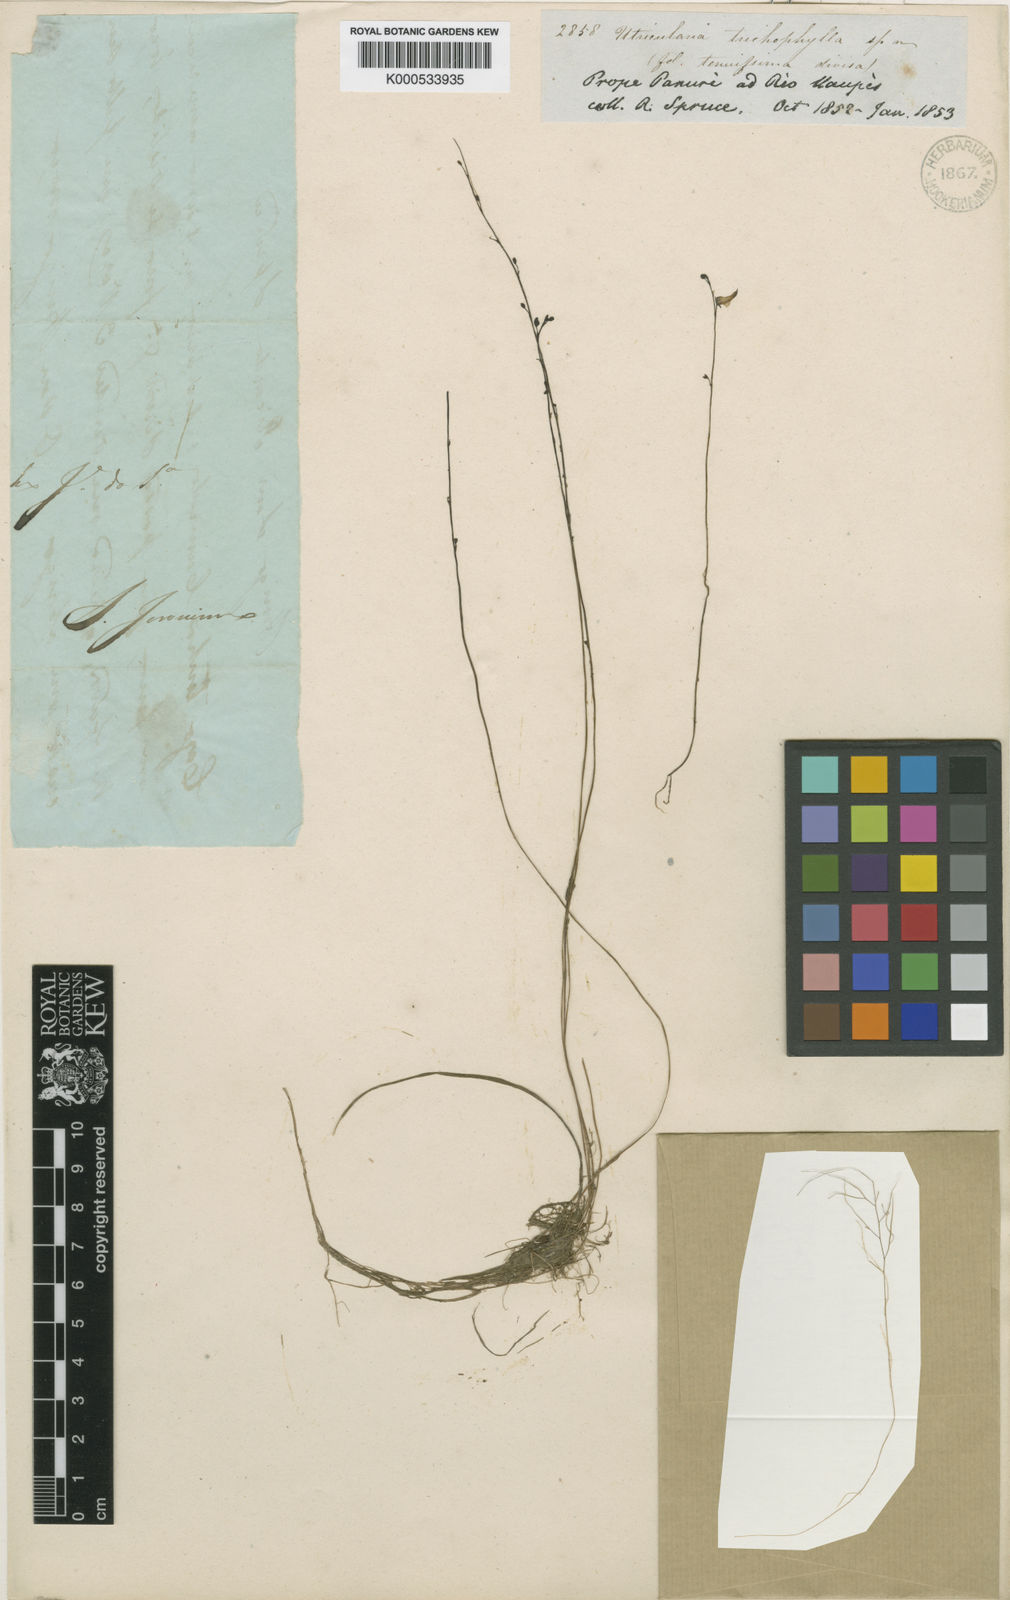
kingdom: Plantae
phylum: Tracheophyta
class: Magnoliopsida
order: Lamiales
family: Lentibulariaceae
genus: Utricularia
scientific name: Utricularia trichophylla
